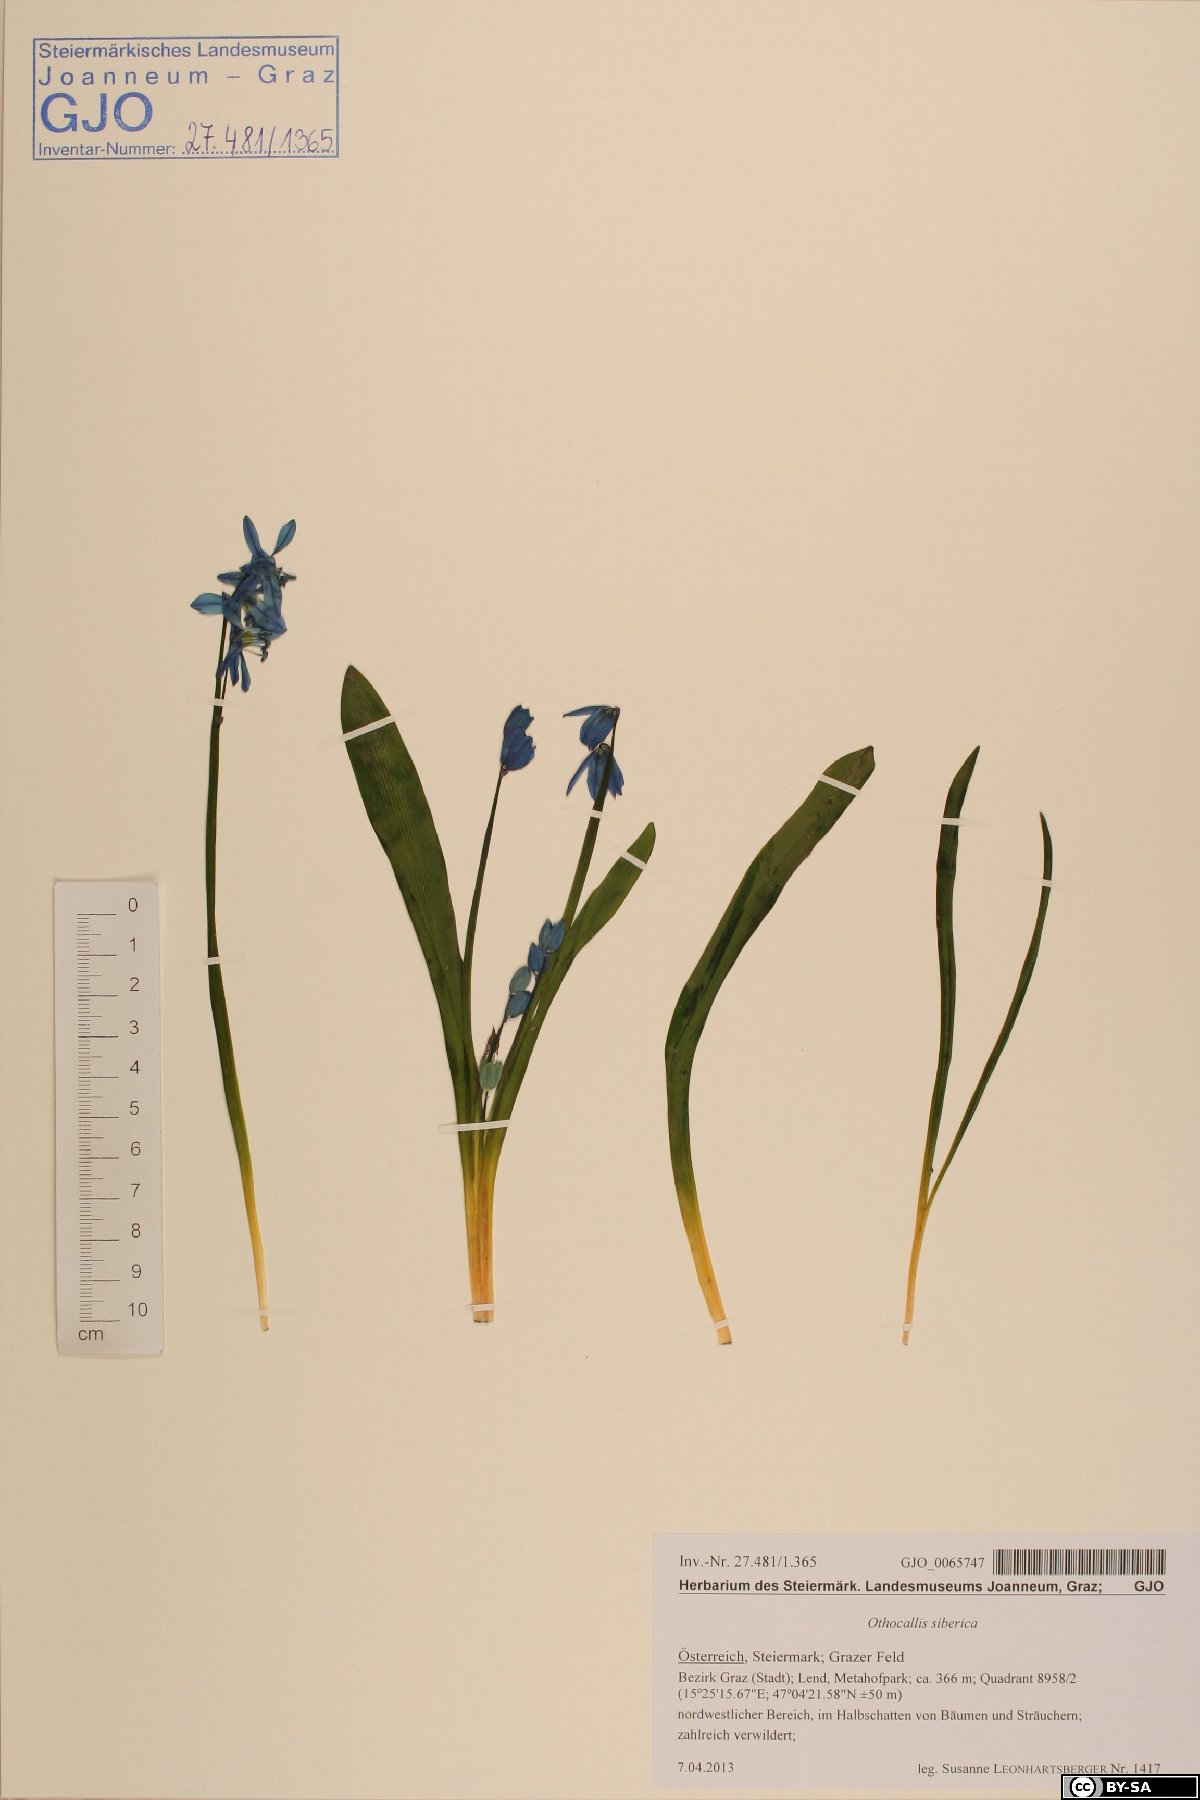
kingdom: Plantae
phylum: Tracheophyta
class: Liliopsida
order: Asparagales
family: Asparagaceae
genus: Scilla
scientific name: Scilla siberica
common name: Siberian squill
